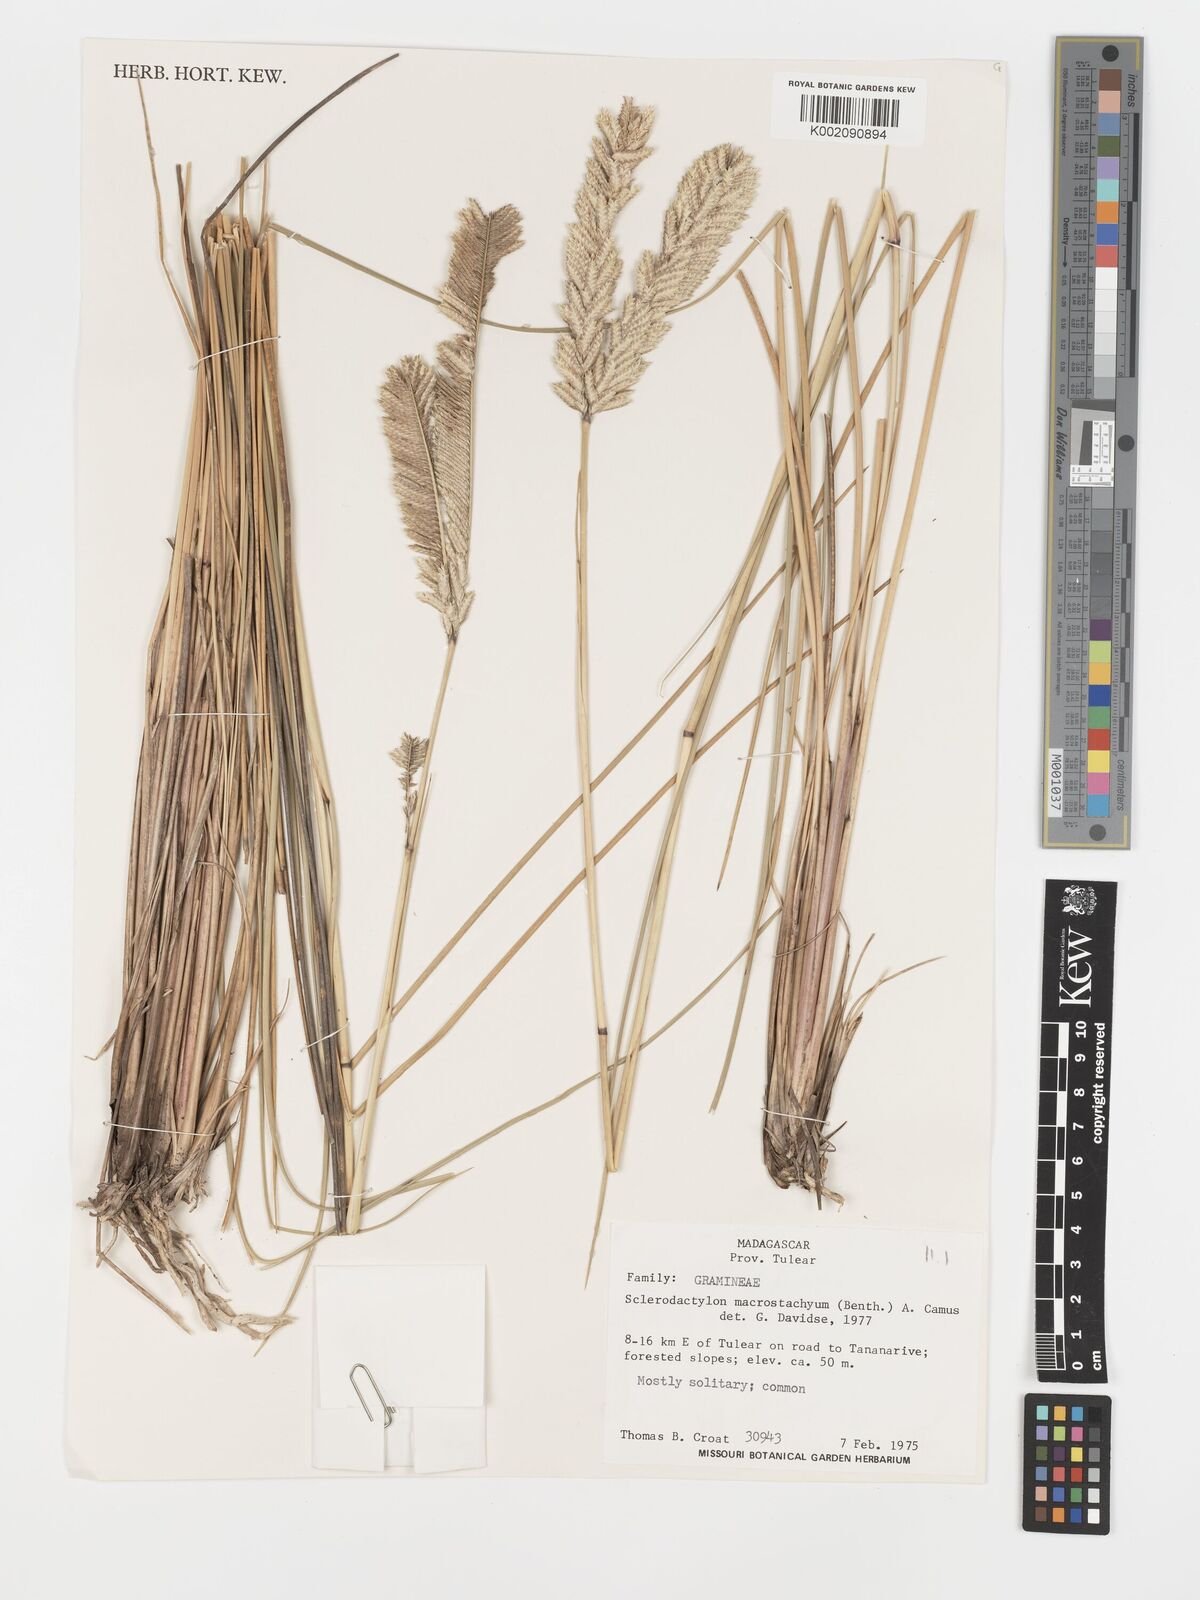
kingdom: Plantae
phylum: Tracheophyta
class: Liliopsida
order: Poales
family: Poaceae
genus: Sclerodactylon
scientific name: Sclerodactylon macrostachyum
